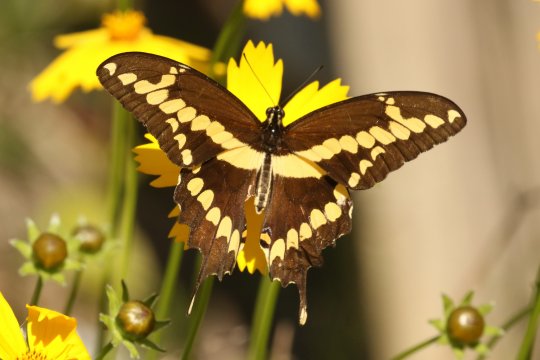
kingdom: Animalia
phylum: Arthropoda
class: Insecta
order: Lepidoptera
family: Papilionidae
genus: Papilio
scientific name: Papilio cresphontes
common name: Eastern Giant Swallowtail
